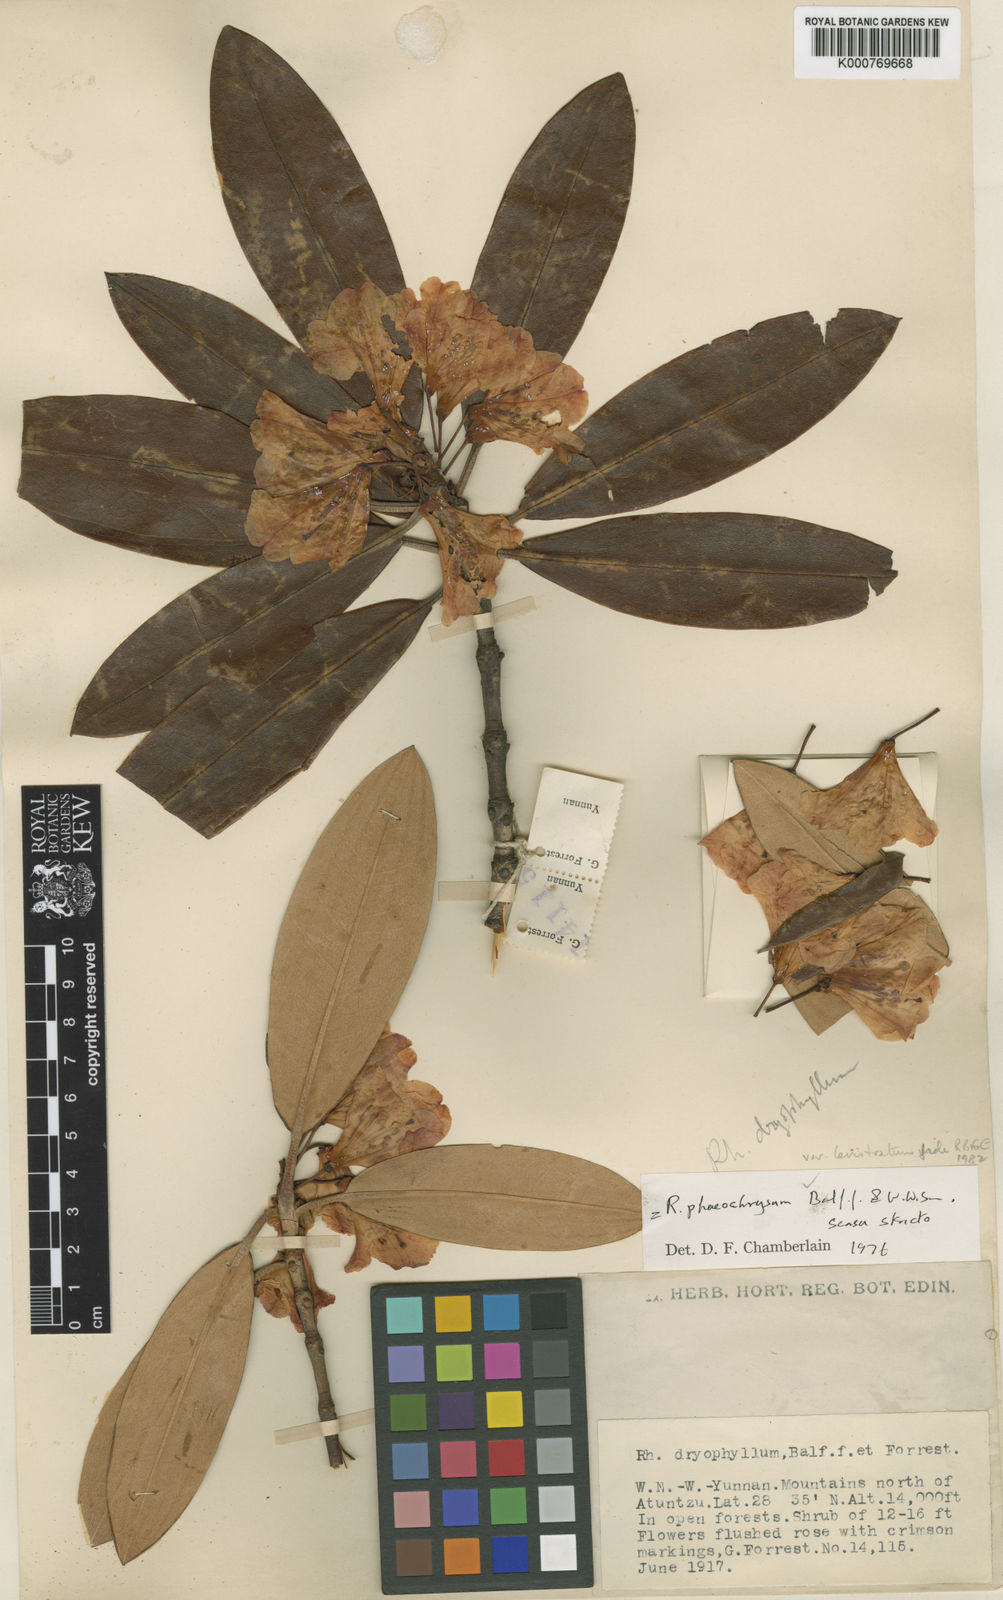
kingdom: Plantae
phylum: Tracheophyta
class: Magnoliopsida
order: Ericales
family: Ericaceae
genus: Rhododendron
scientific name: Rhododendron phaeochrysum
